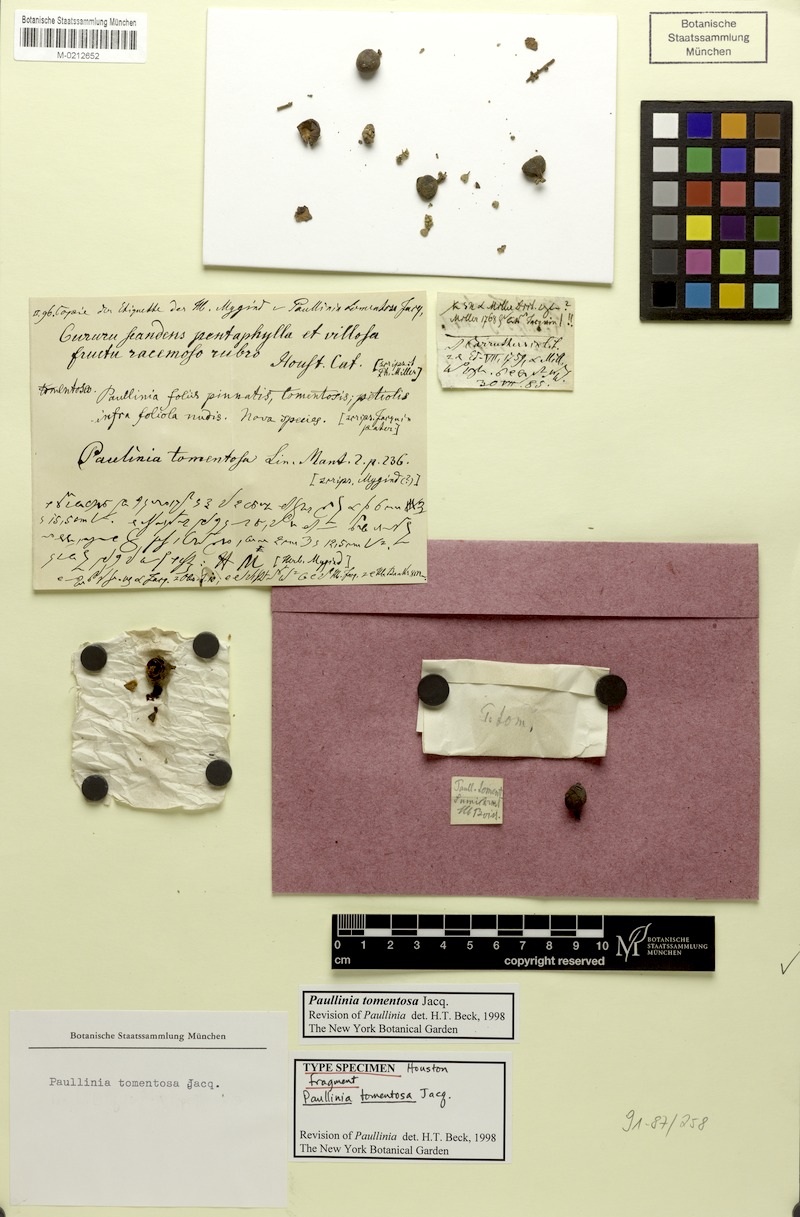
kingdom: Plantae
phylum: Tracheophyta
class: Magnoliopsida
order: Sapindales
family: Sapindaceae
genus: Paullinia
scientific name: Paullinia tomentosa
